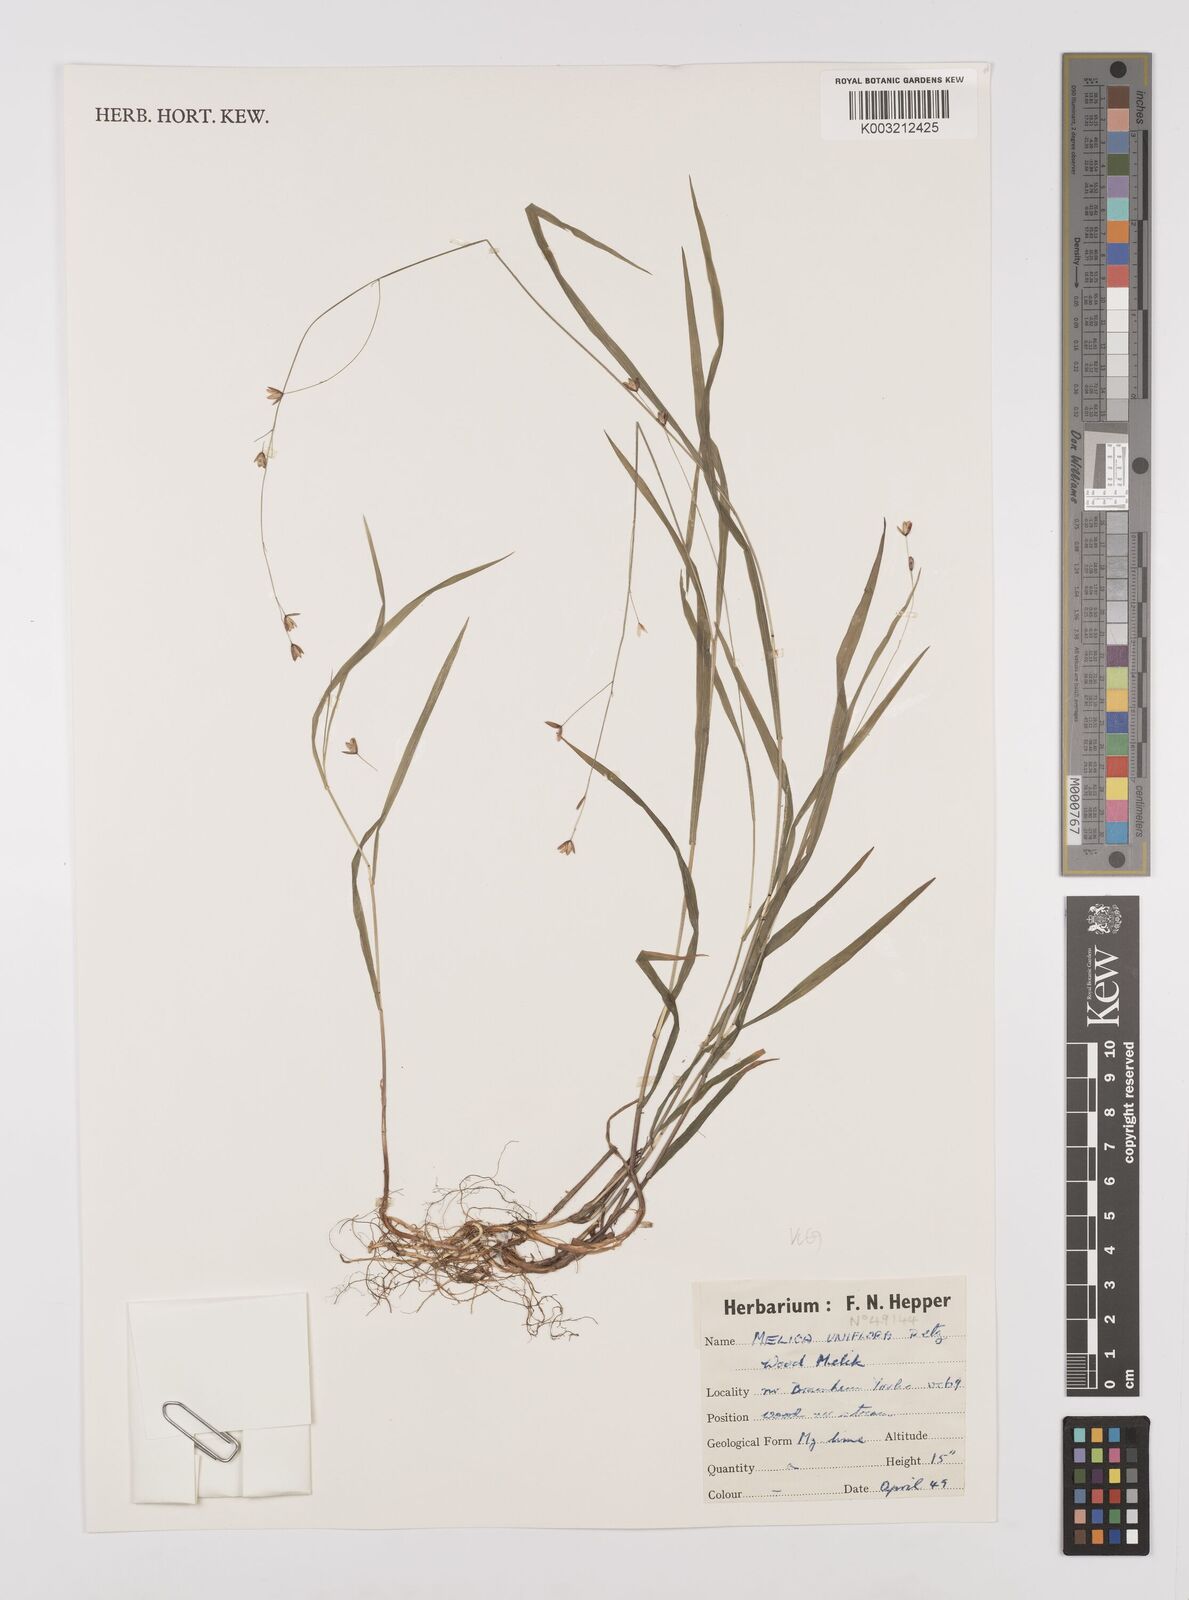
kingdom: Plantae
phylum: Tracheophyta
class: Liliopsida
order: Poales
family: Poaceae
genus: Melica
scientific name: Melica uniflora
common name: Wood melick
